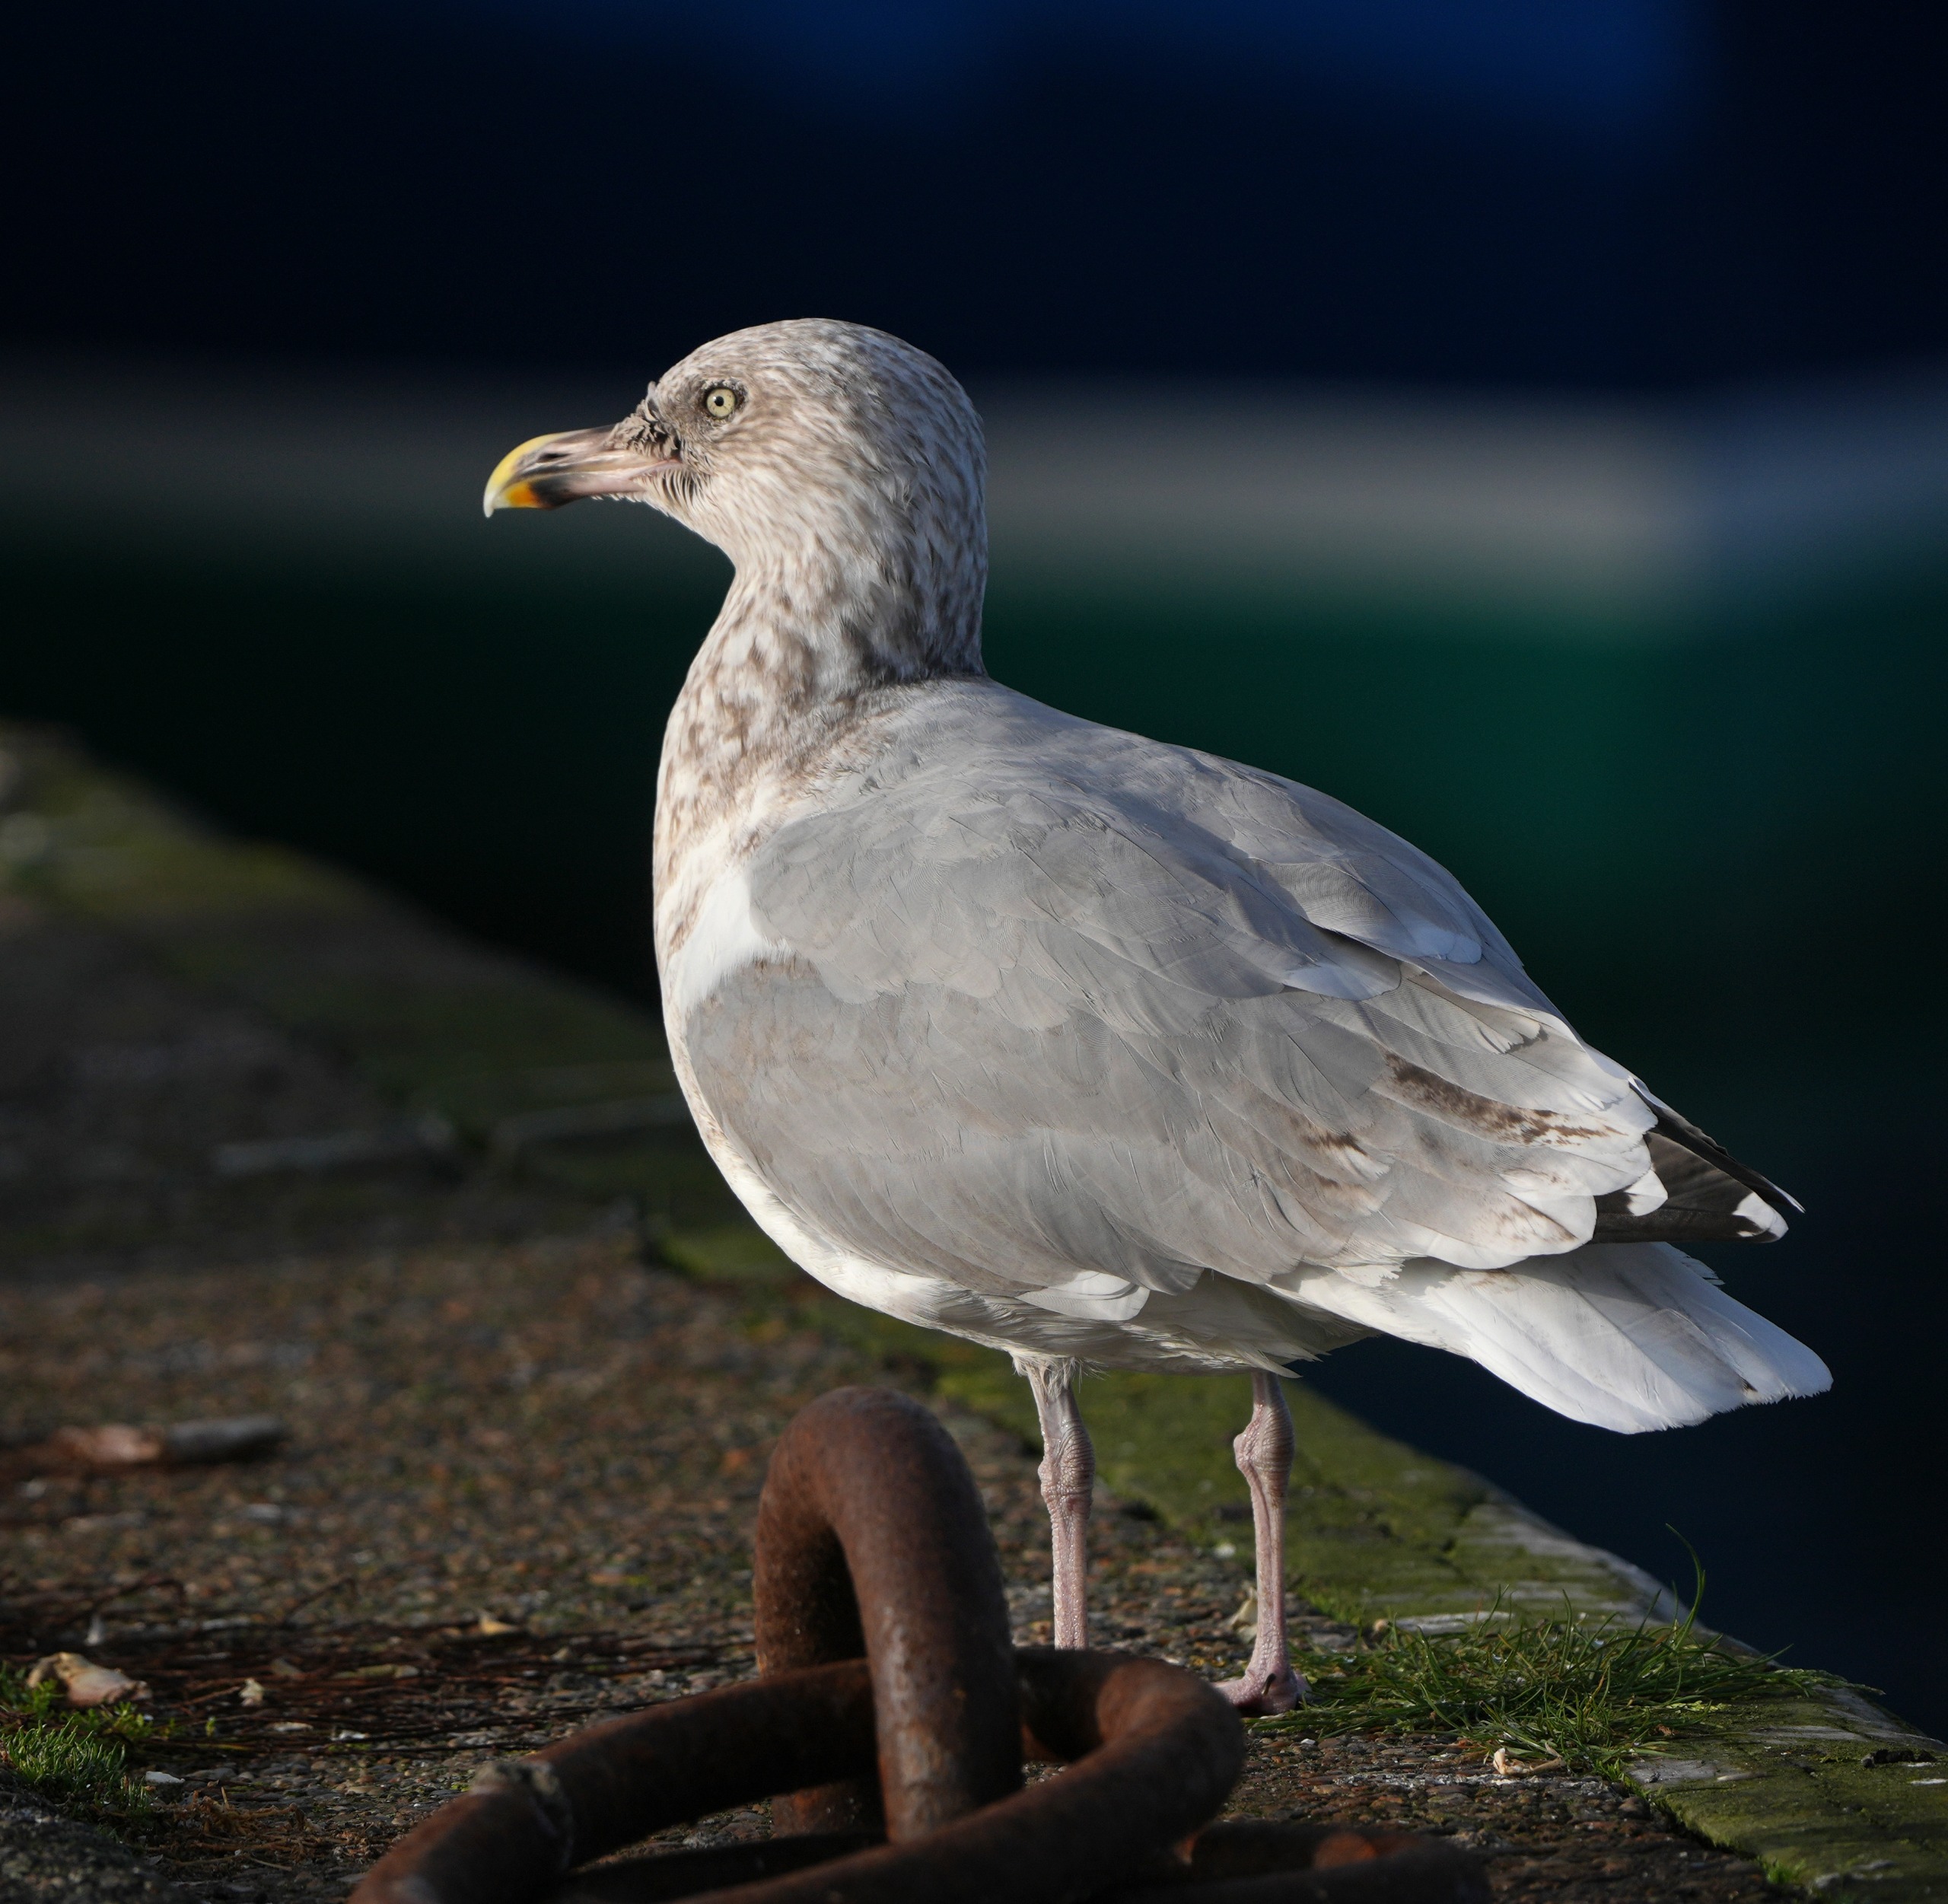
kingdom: Animalia
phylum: Chordata
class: Aves
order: Charadriiformes
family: Laridae
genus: Larus
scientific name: Larus argentatus
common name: Sølvmåge
